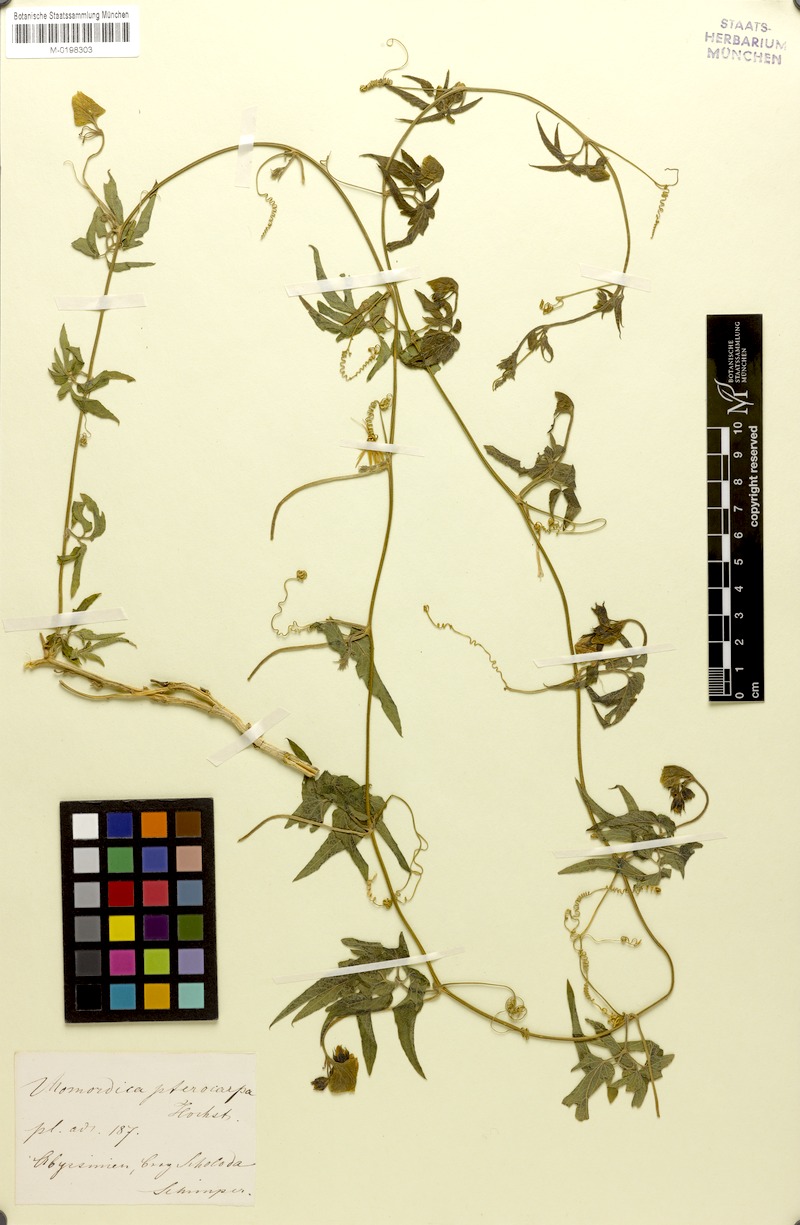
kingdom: Plantae
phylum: Tracheophyta
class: Magnoliopsida
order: Cucurbitales
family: Cucurbitaceae
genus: Momordica
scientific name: Momordica pterocarpa
